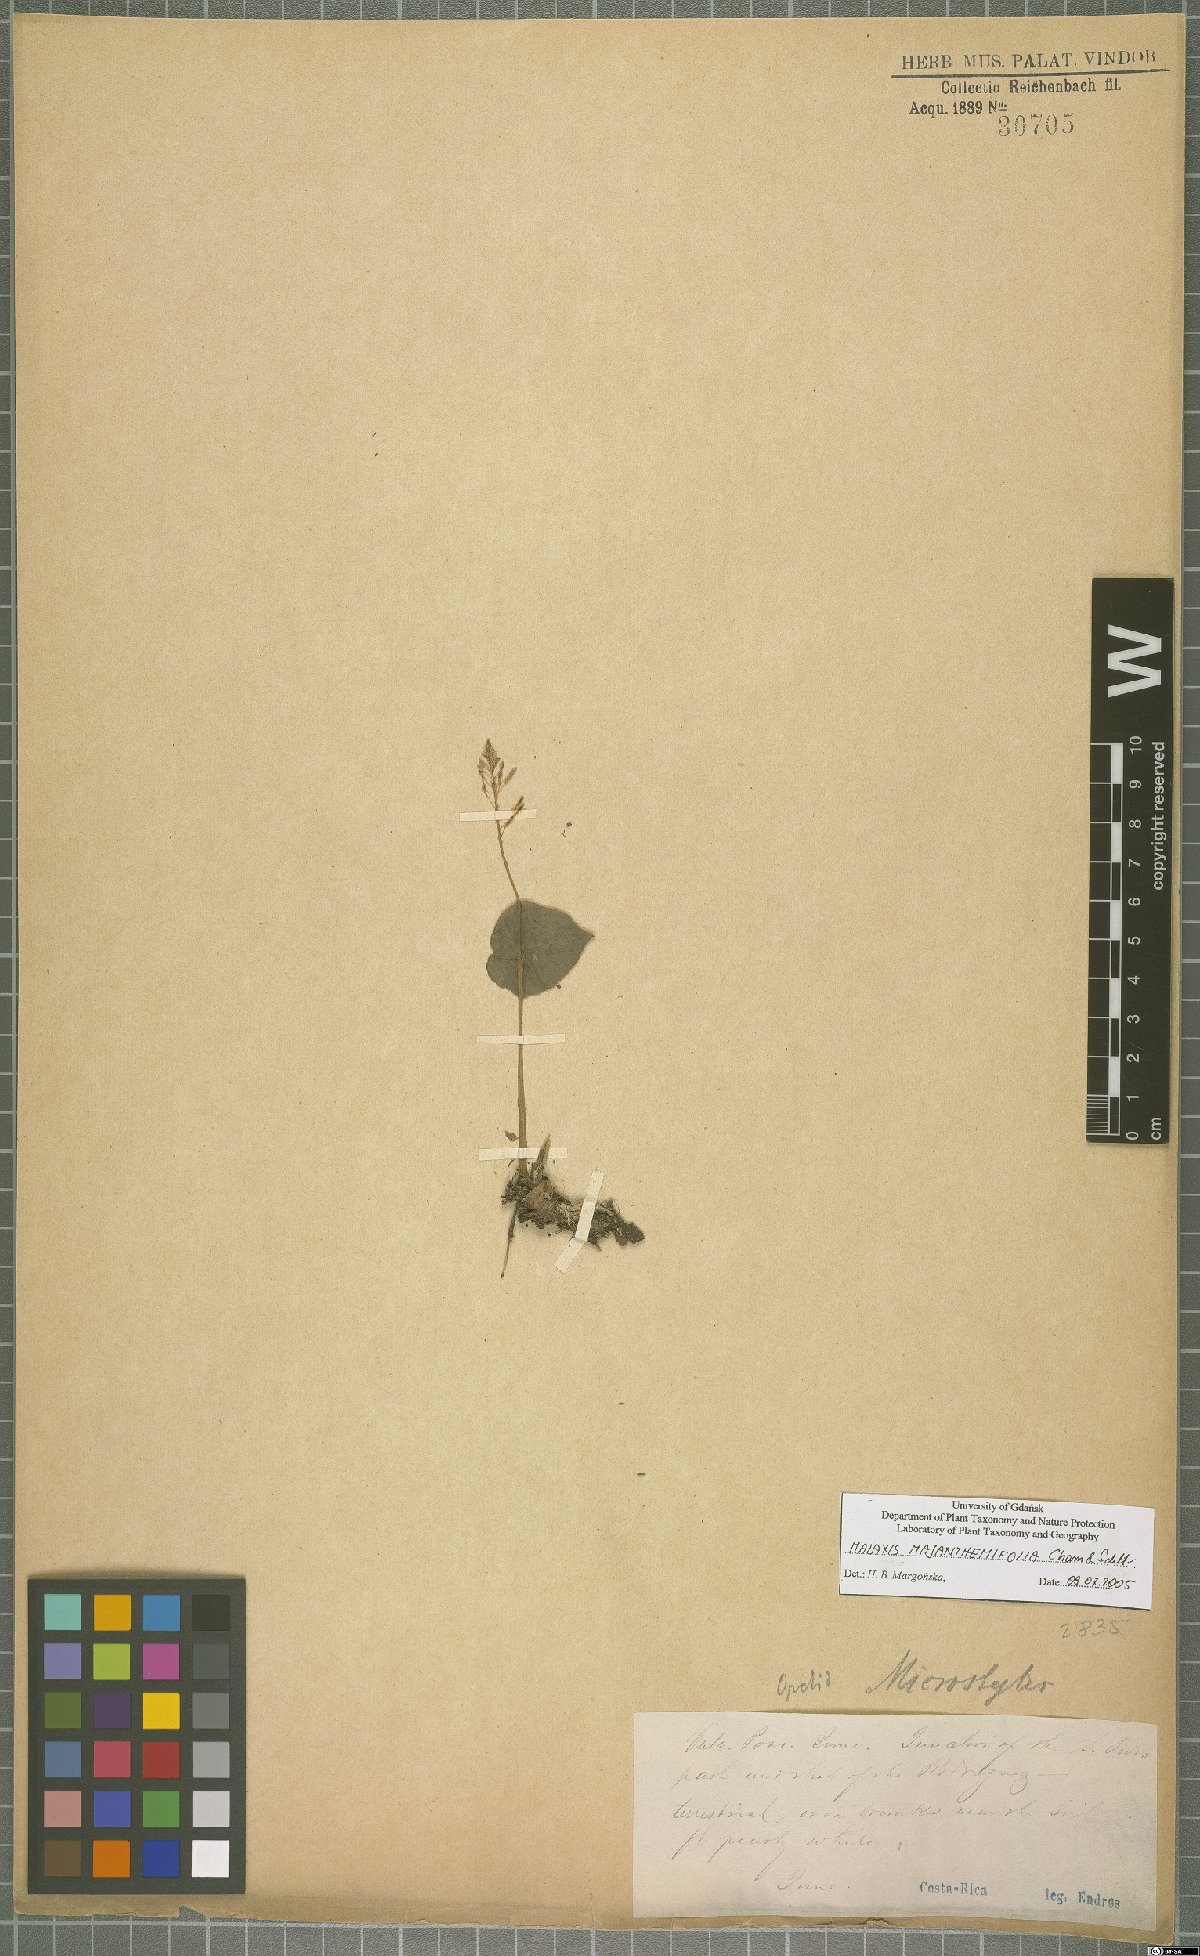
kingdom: Plantae
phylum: Tracheophyta
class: Liliopsida
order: Asparagales
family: Orchidaceae
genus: Malaxis
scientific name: Malaxis maianthemifolia
